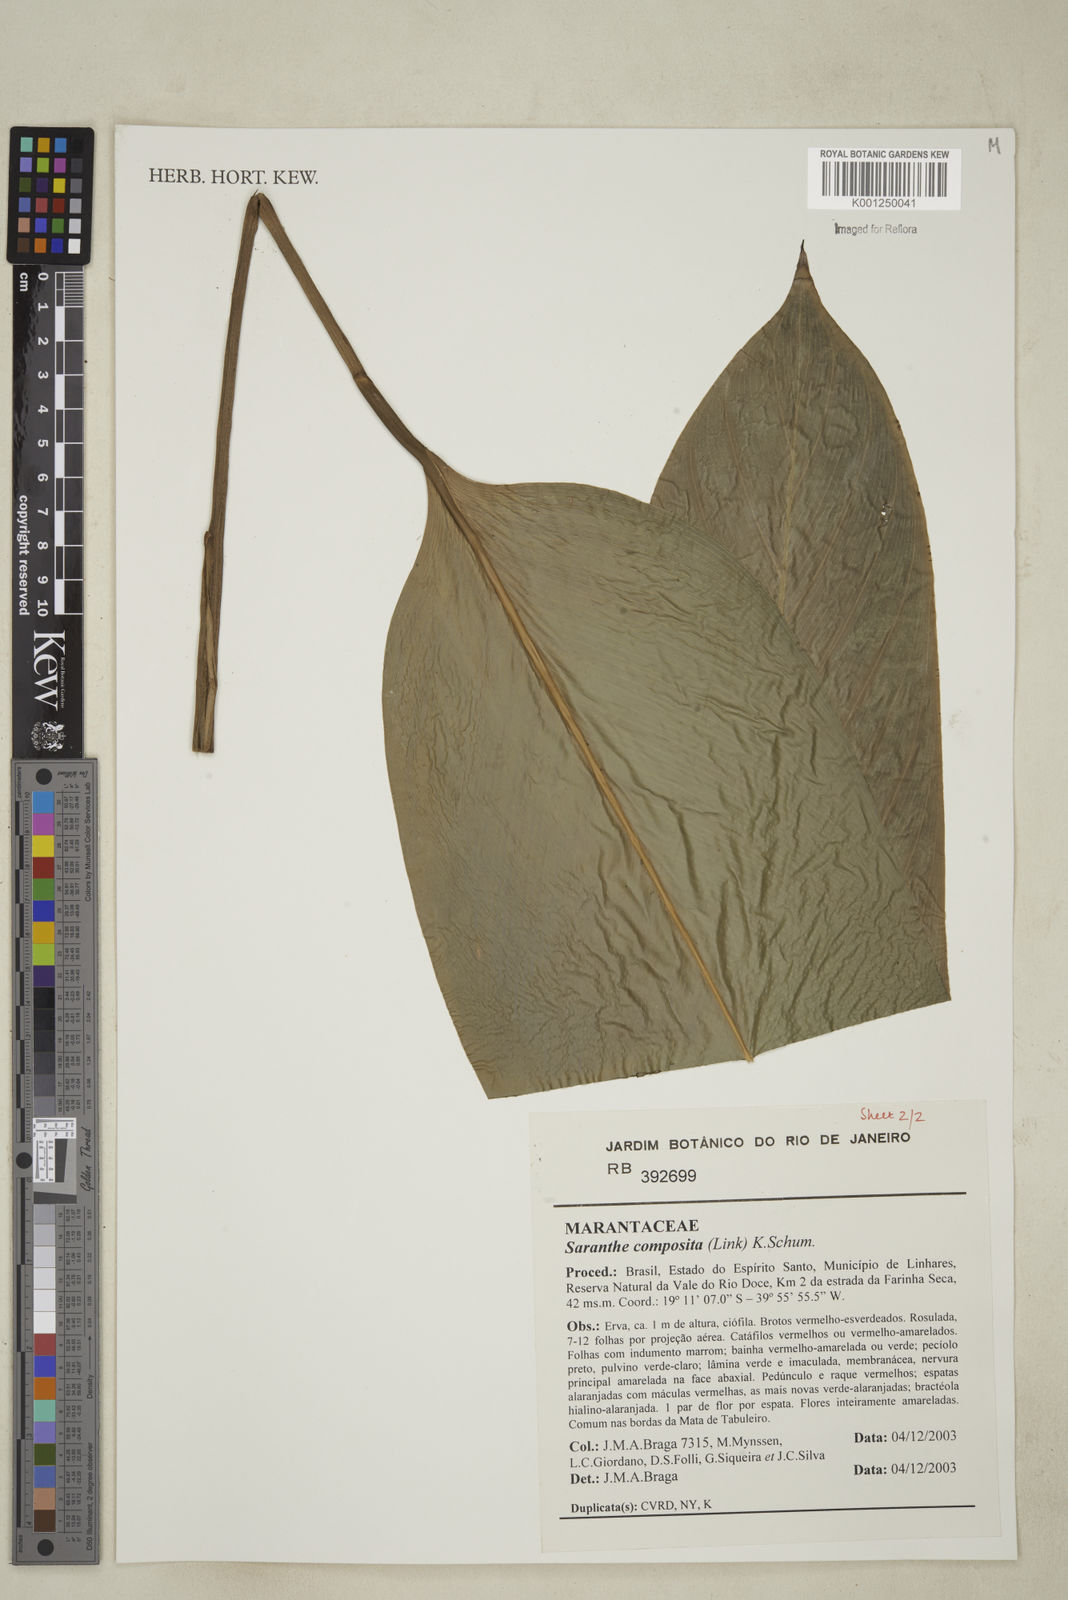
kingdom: Plantae
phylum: Tracheophyta
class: Liliopsida
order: Zingiberales
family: Marantaceae
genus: Saranthe
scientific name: Saranthe composita
